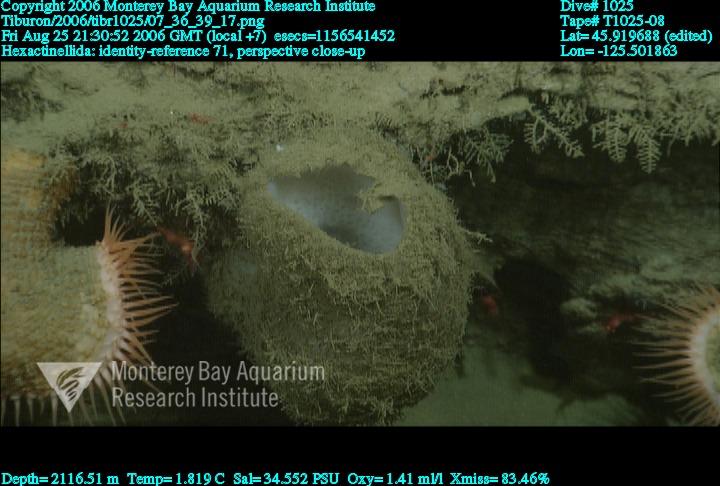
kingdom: Animalia
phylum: Porifera
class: Hexactinellida
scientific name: Hexactinellida
